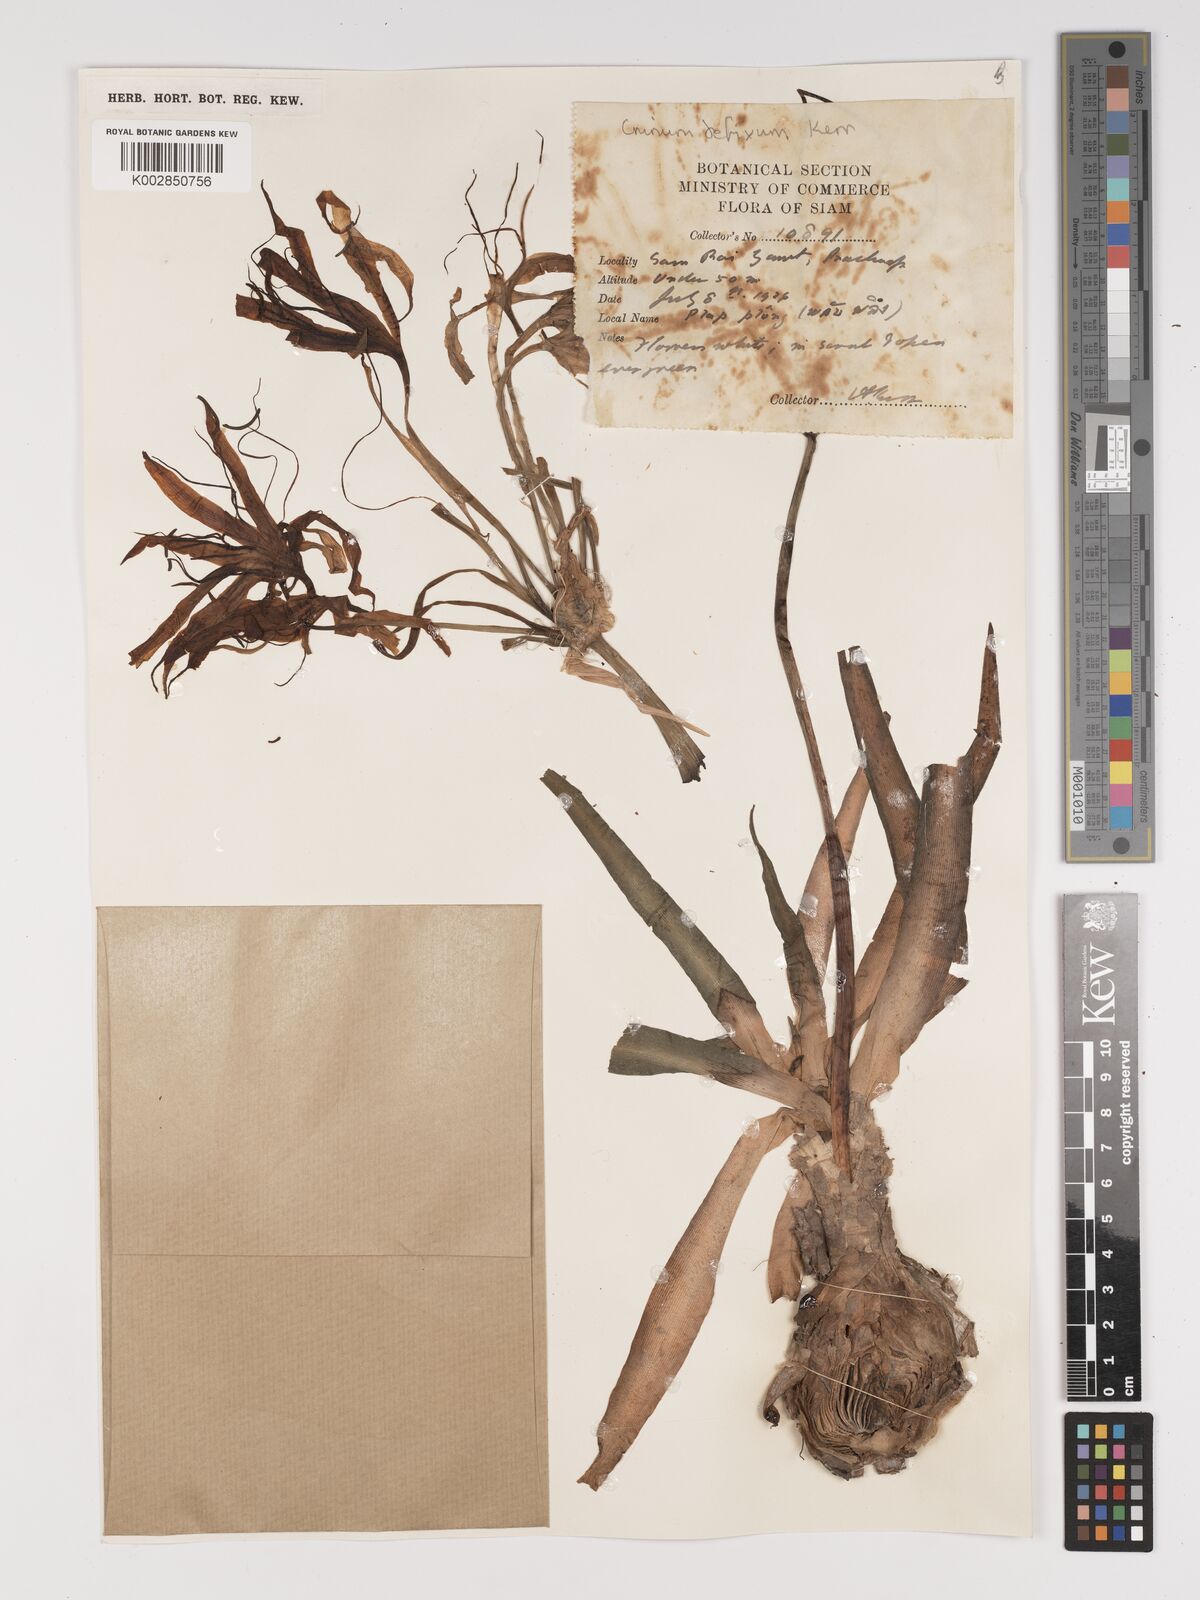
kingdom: Plantae
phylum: Tracheophyta
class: Liliopsida
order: Asparagales
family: Amaryllidaceae
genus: Crinum
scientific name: Crinum defixum
